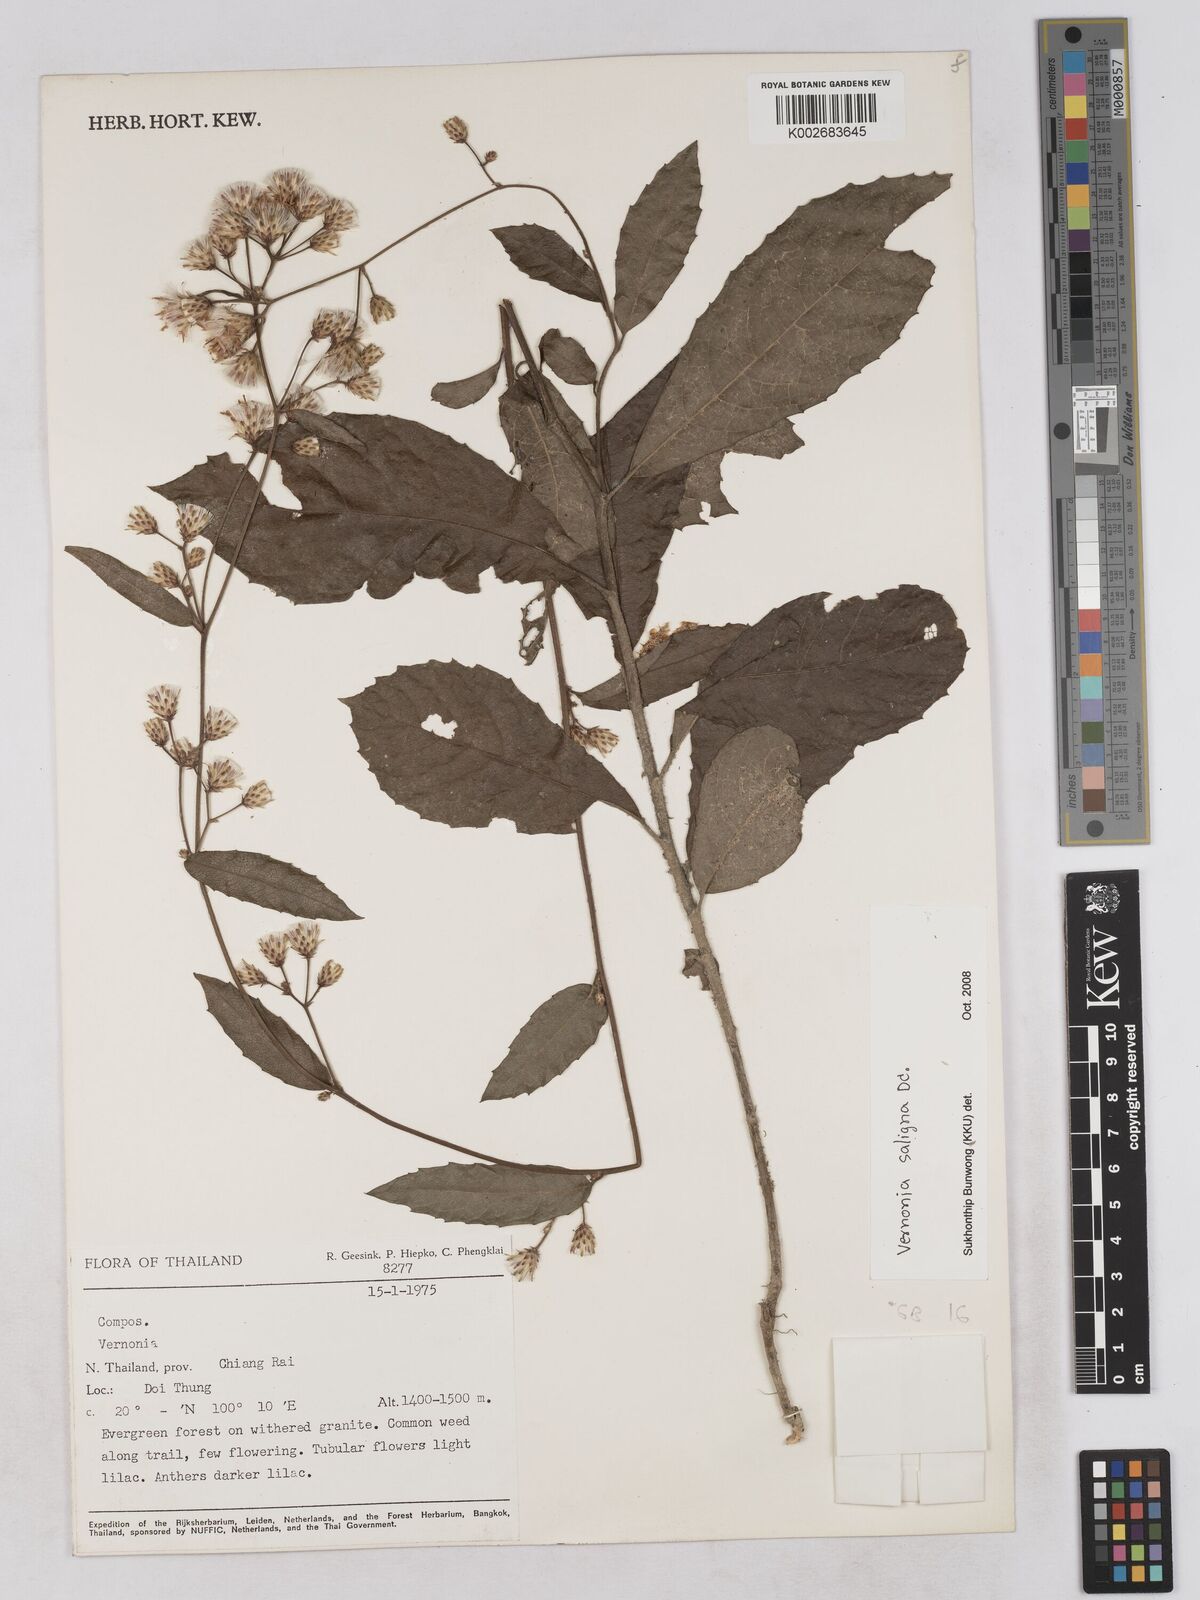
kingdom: Plantae
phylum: Tracheophyta
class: Magnoliopsida
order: Asterales
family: Asteraceae
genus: Acilepis
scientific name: Acilepis saligna
